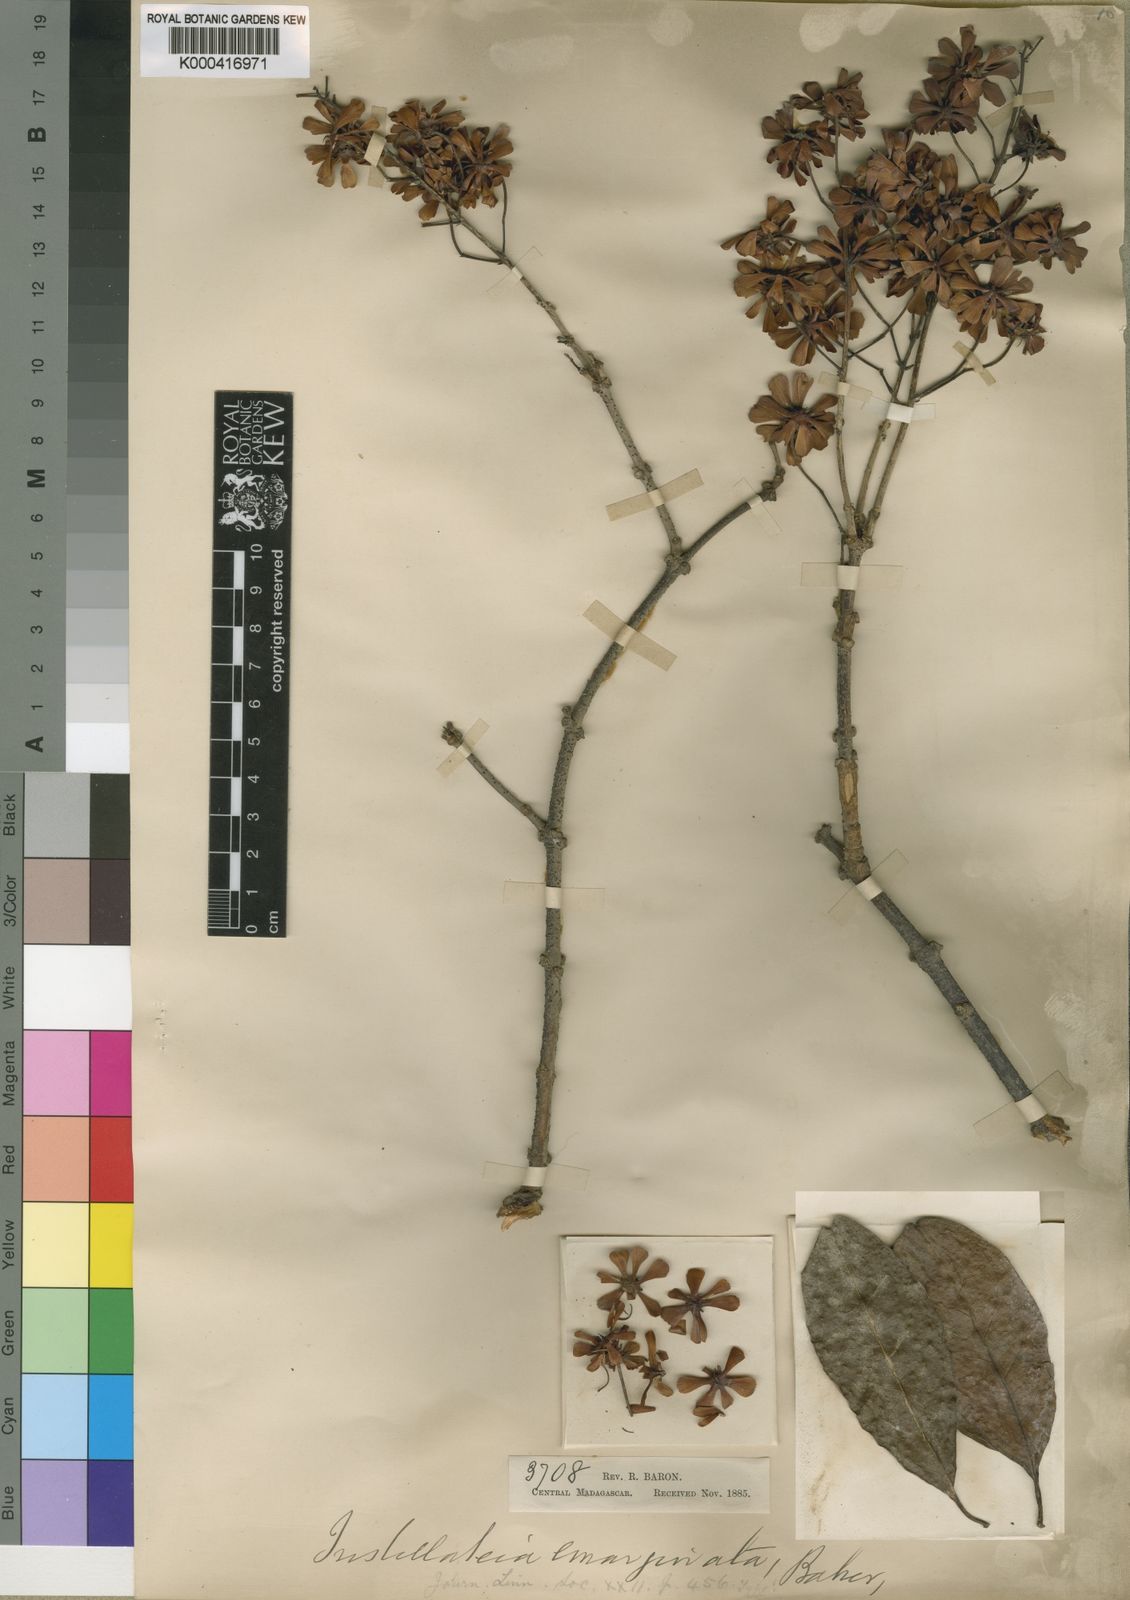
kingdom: Plantae
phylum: Tracheophyta
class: Magnoliopsida
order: Malpighiales
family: Malpighiaceae
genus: Tristellateia
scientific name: Tristellateia madagascariensis
